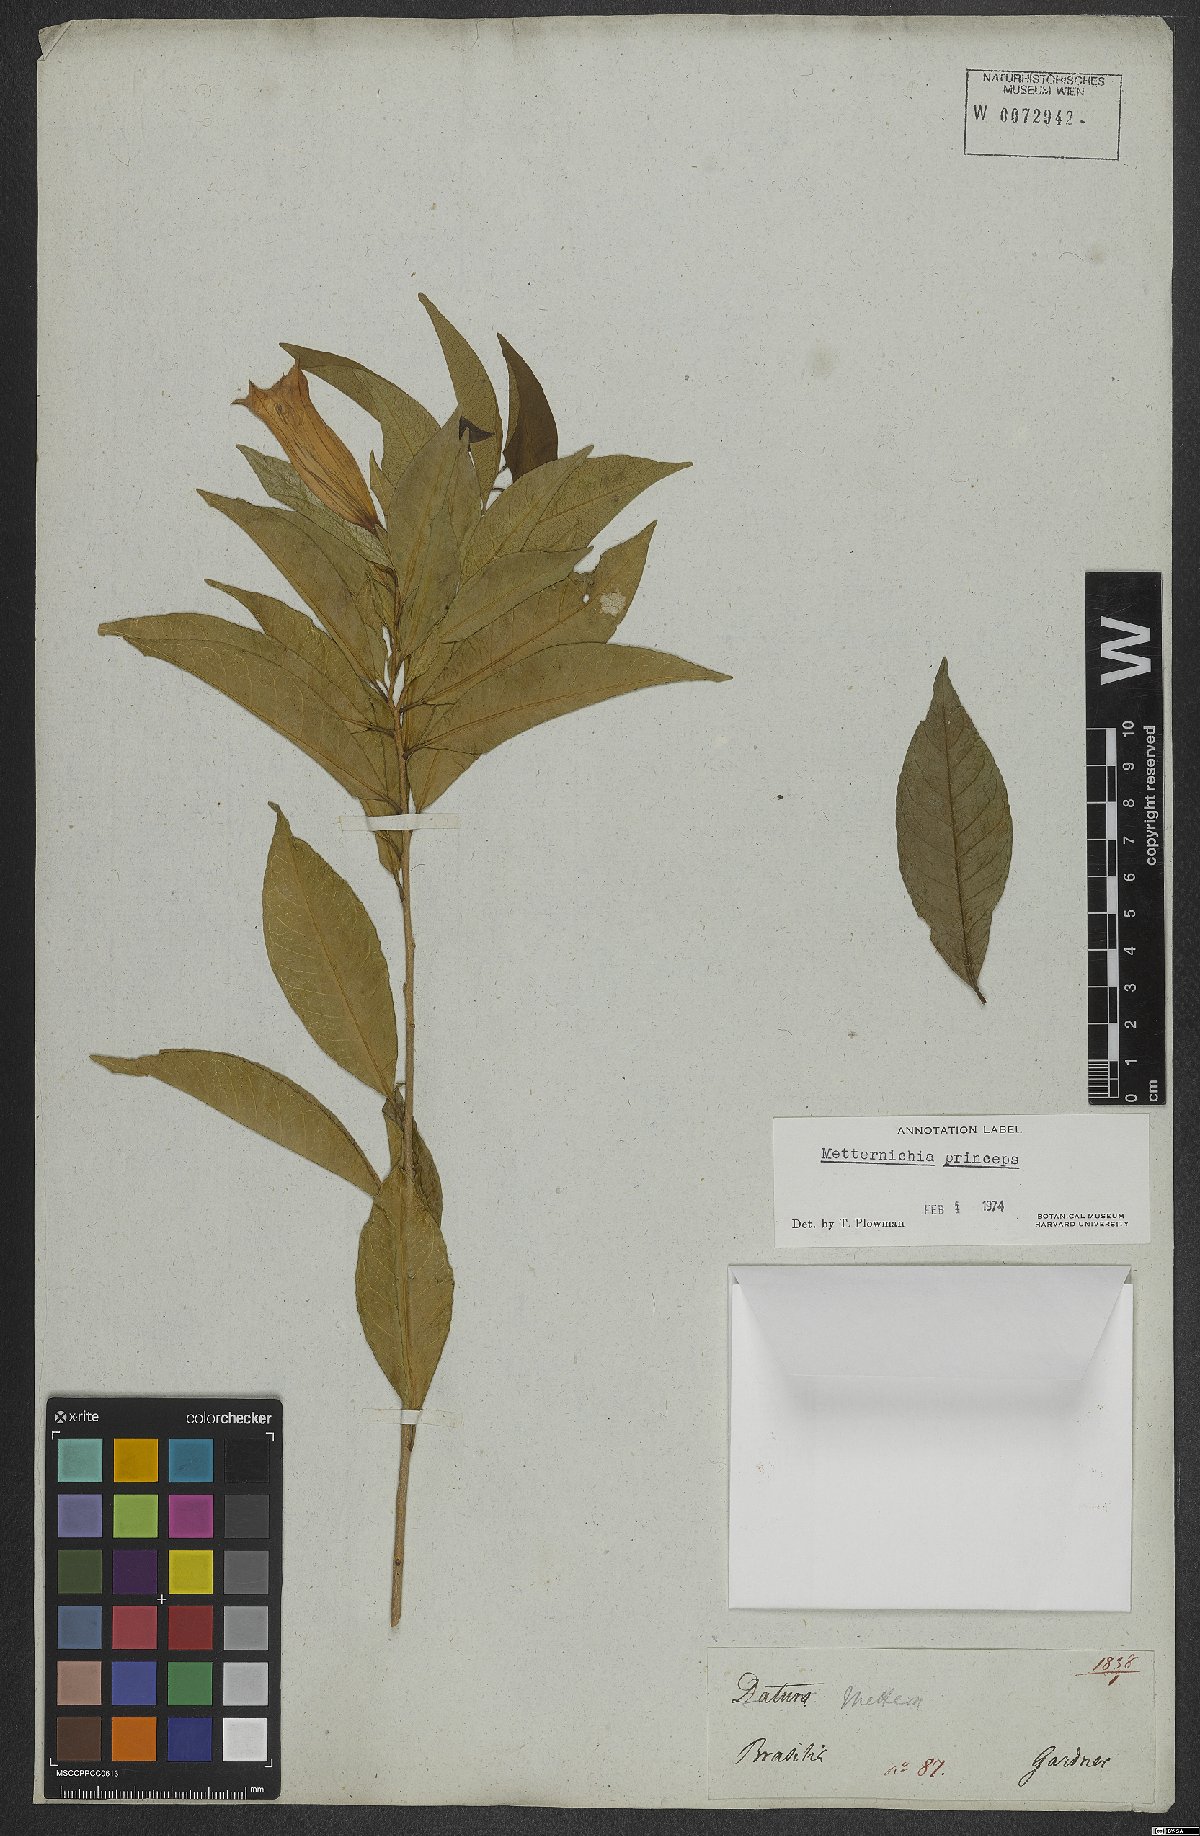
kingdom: Plantae
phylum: Tracheophyta
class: Magnoliopsida
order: Solanales
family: Solanaceae
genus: Metternichia
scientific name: Metternichia principis
